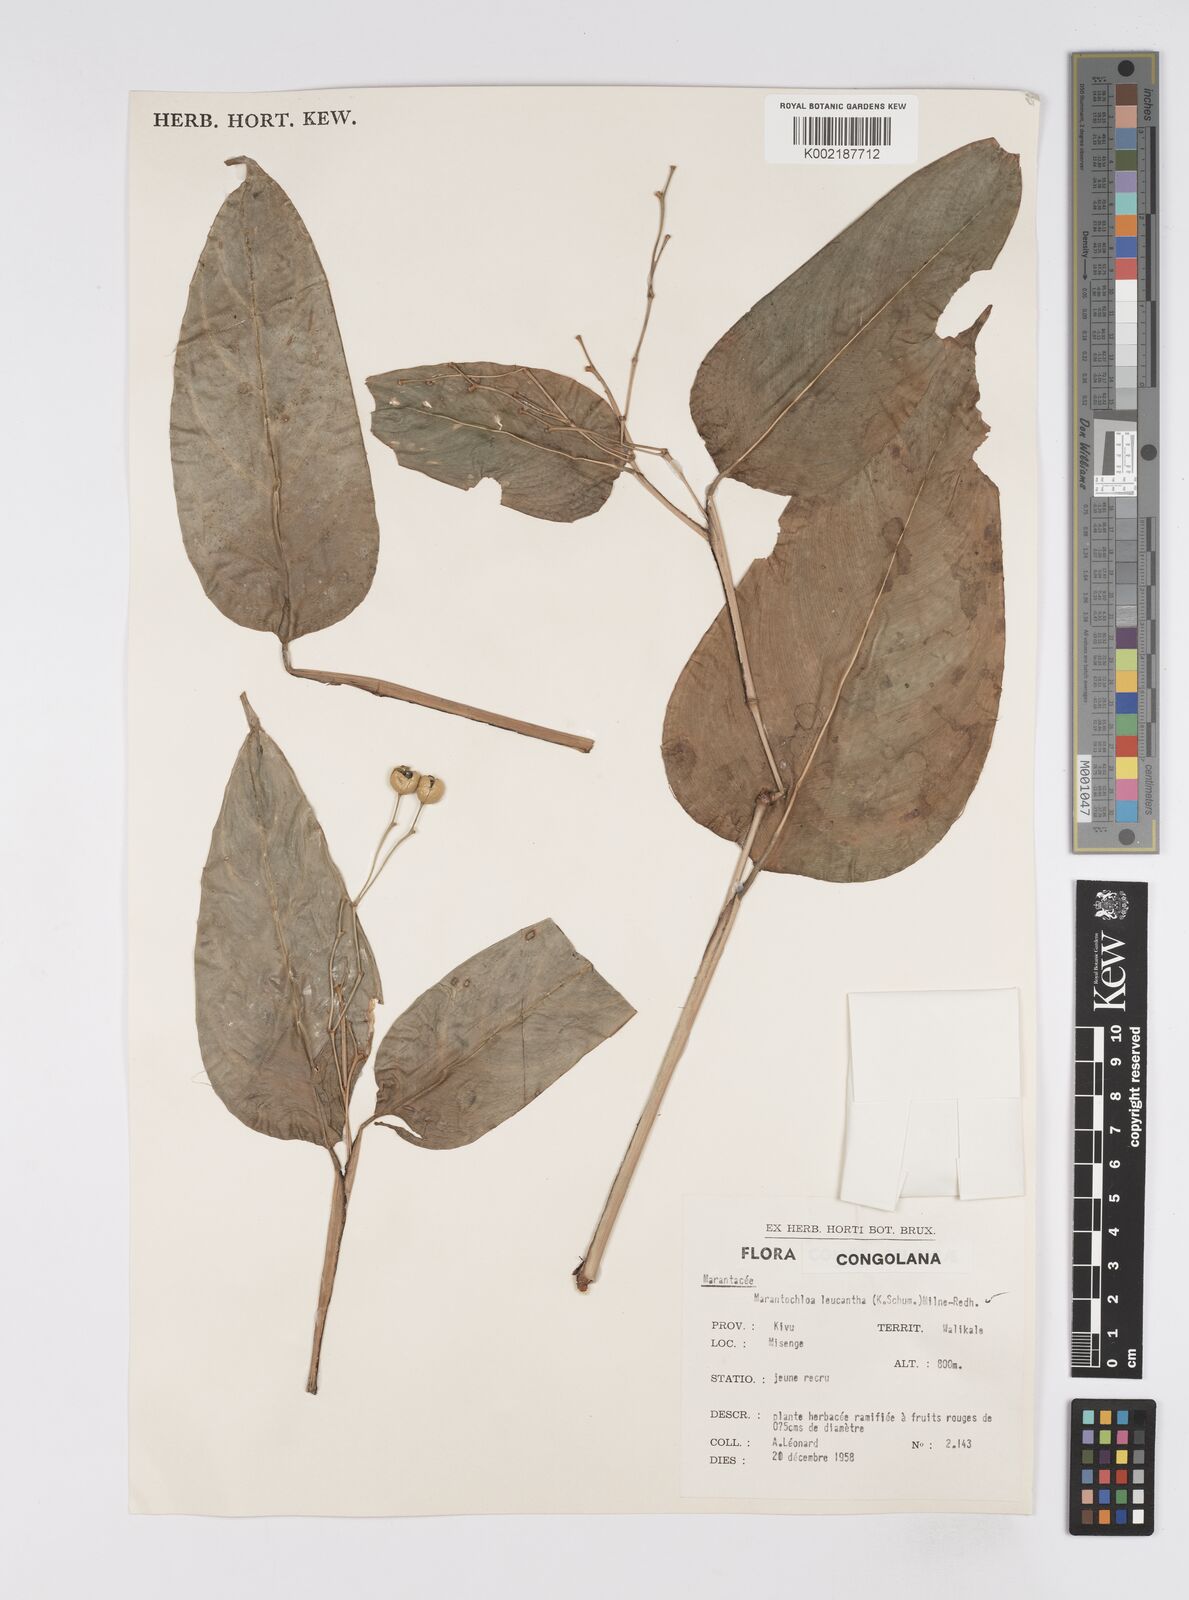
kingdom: Plantae
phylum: Tracheophyta
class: Liliopsida
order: Zingiberales
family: Marantaceae
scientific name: Marantaceae
